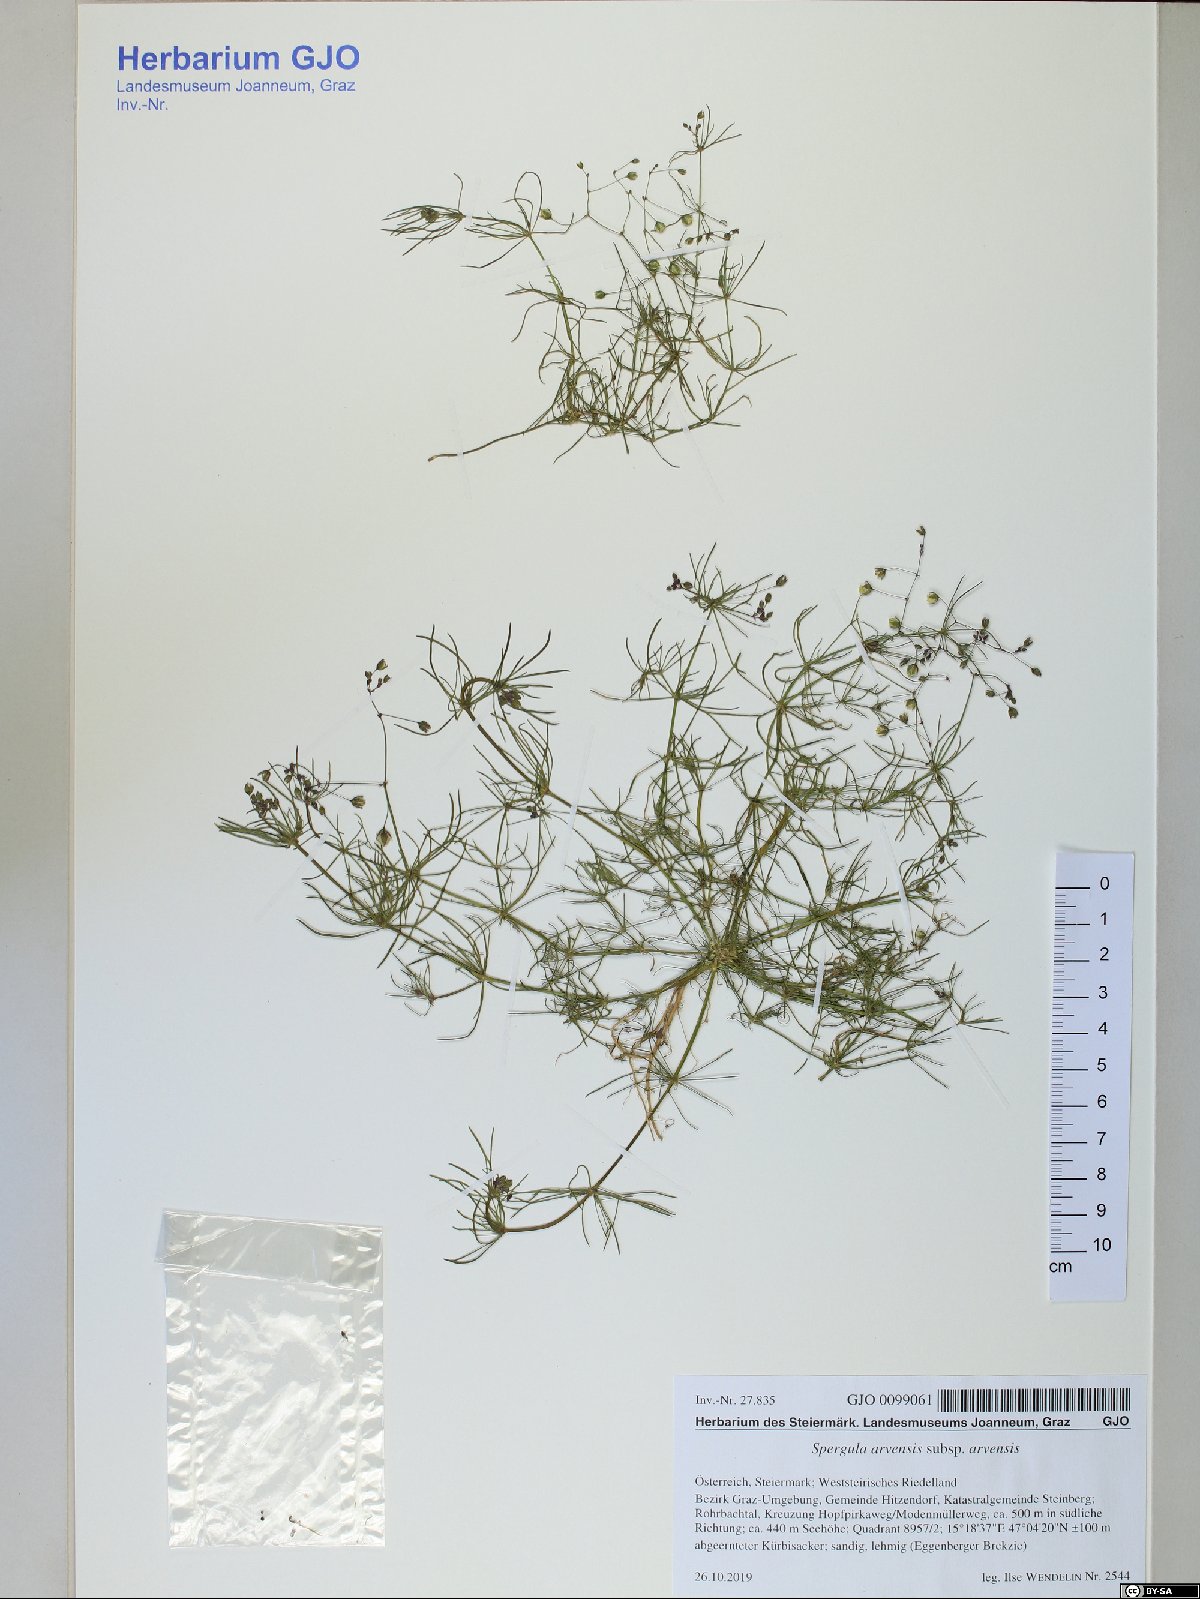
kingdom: Plantae
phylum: Tracheophyta
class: Magnoliopsida
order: Caryophyllales
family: Caryophyllaceae
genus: Spergula
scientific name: Spergula arvensis
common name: Corn spurrey
